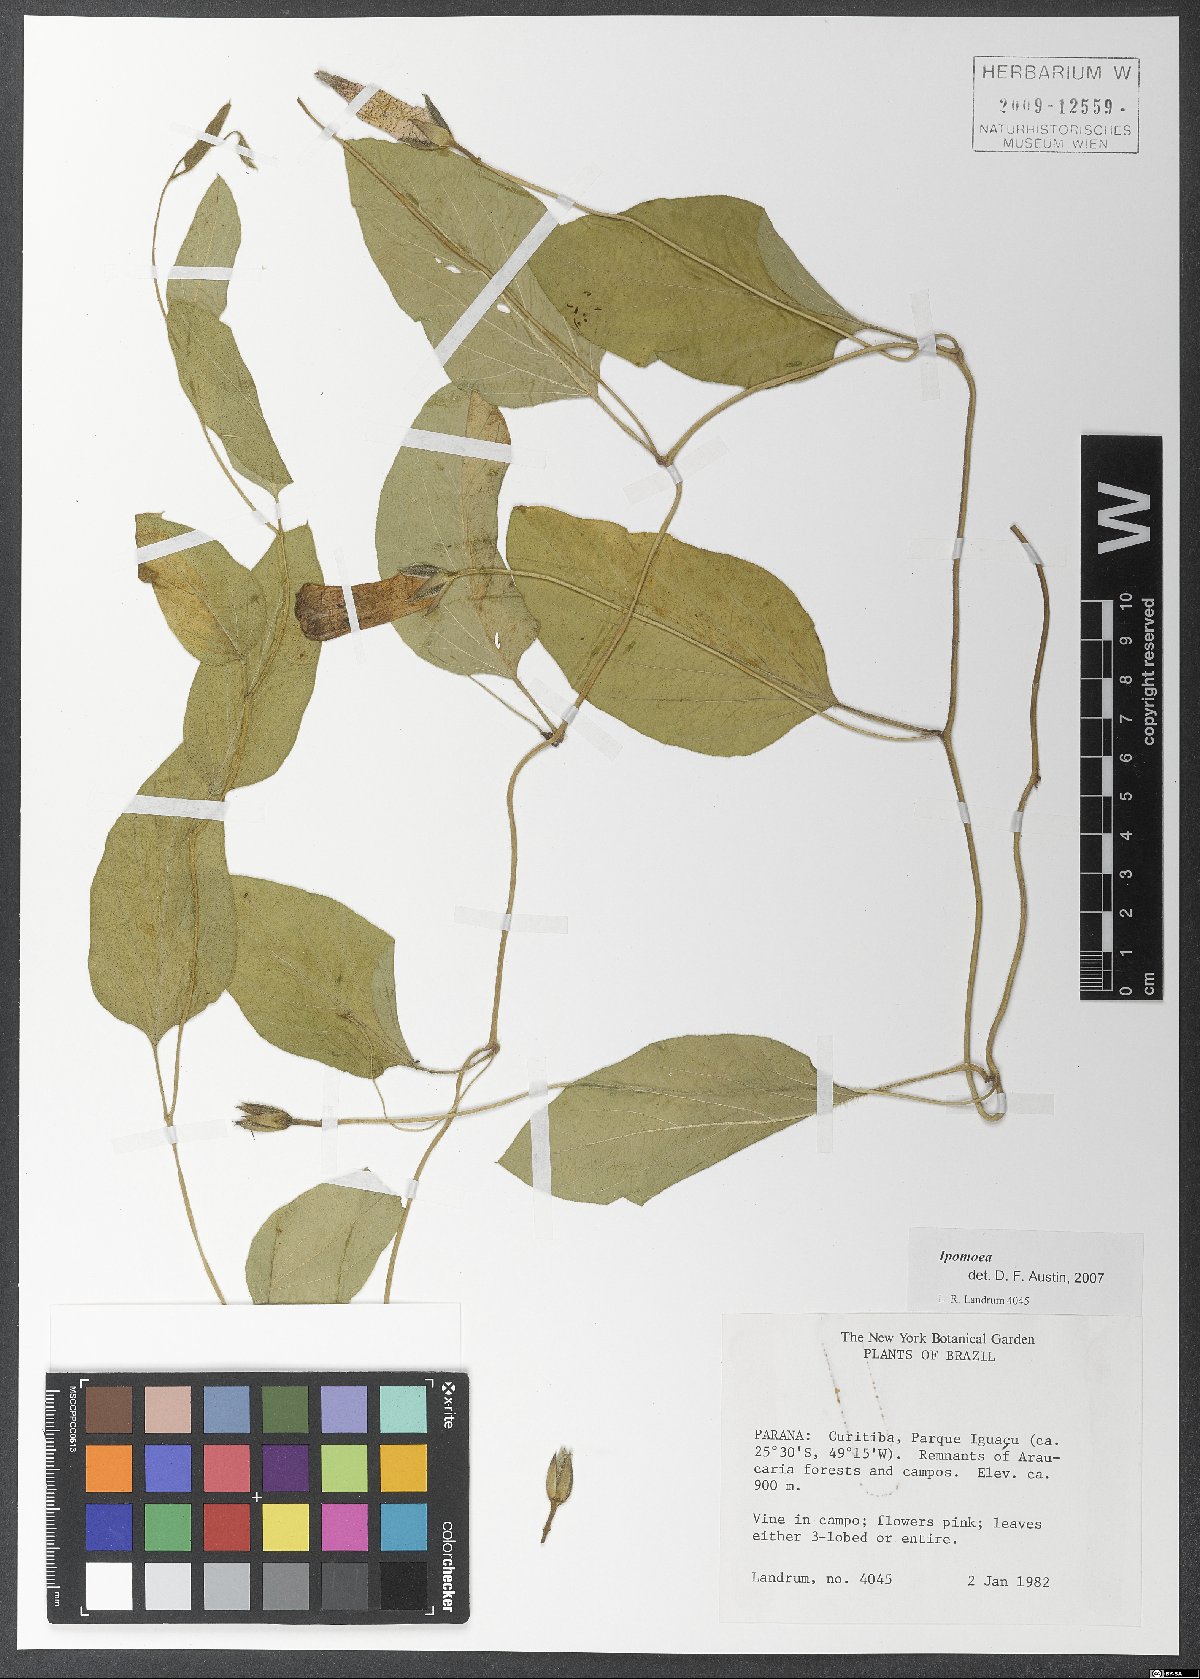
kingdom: Plantae
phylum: Tracheophyta
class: Magnoliopsida
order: Solanales
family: Convolvulaceae
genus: Ipomoea
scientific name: Ipomoea
